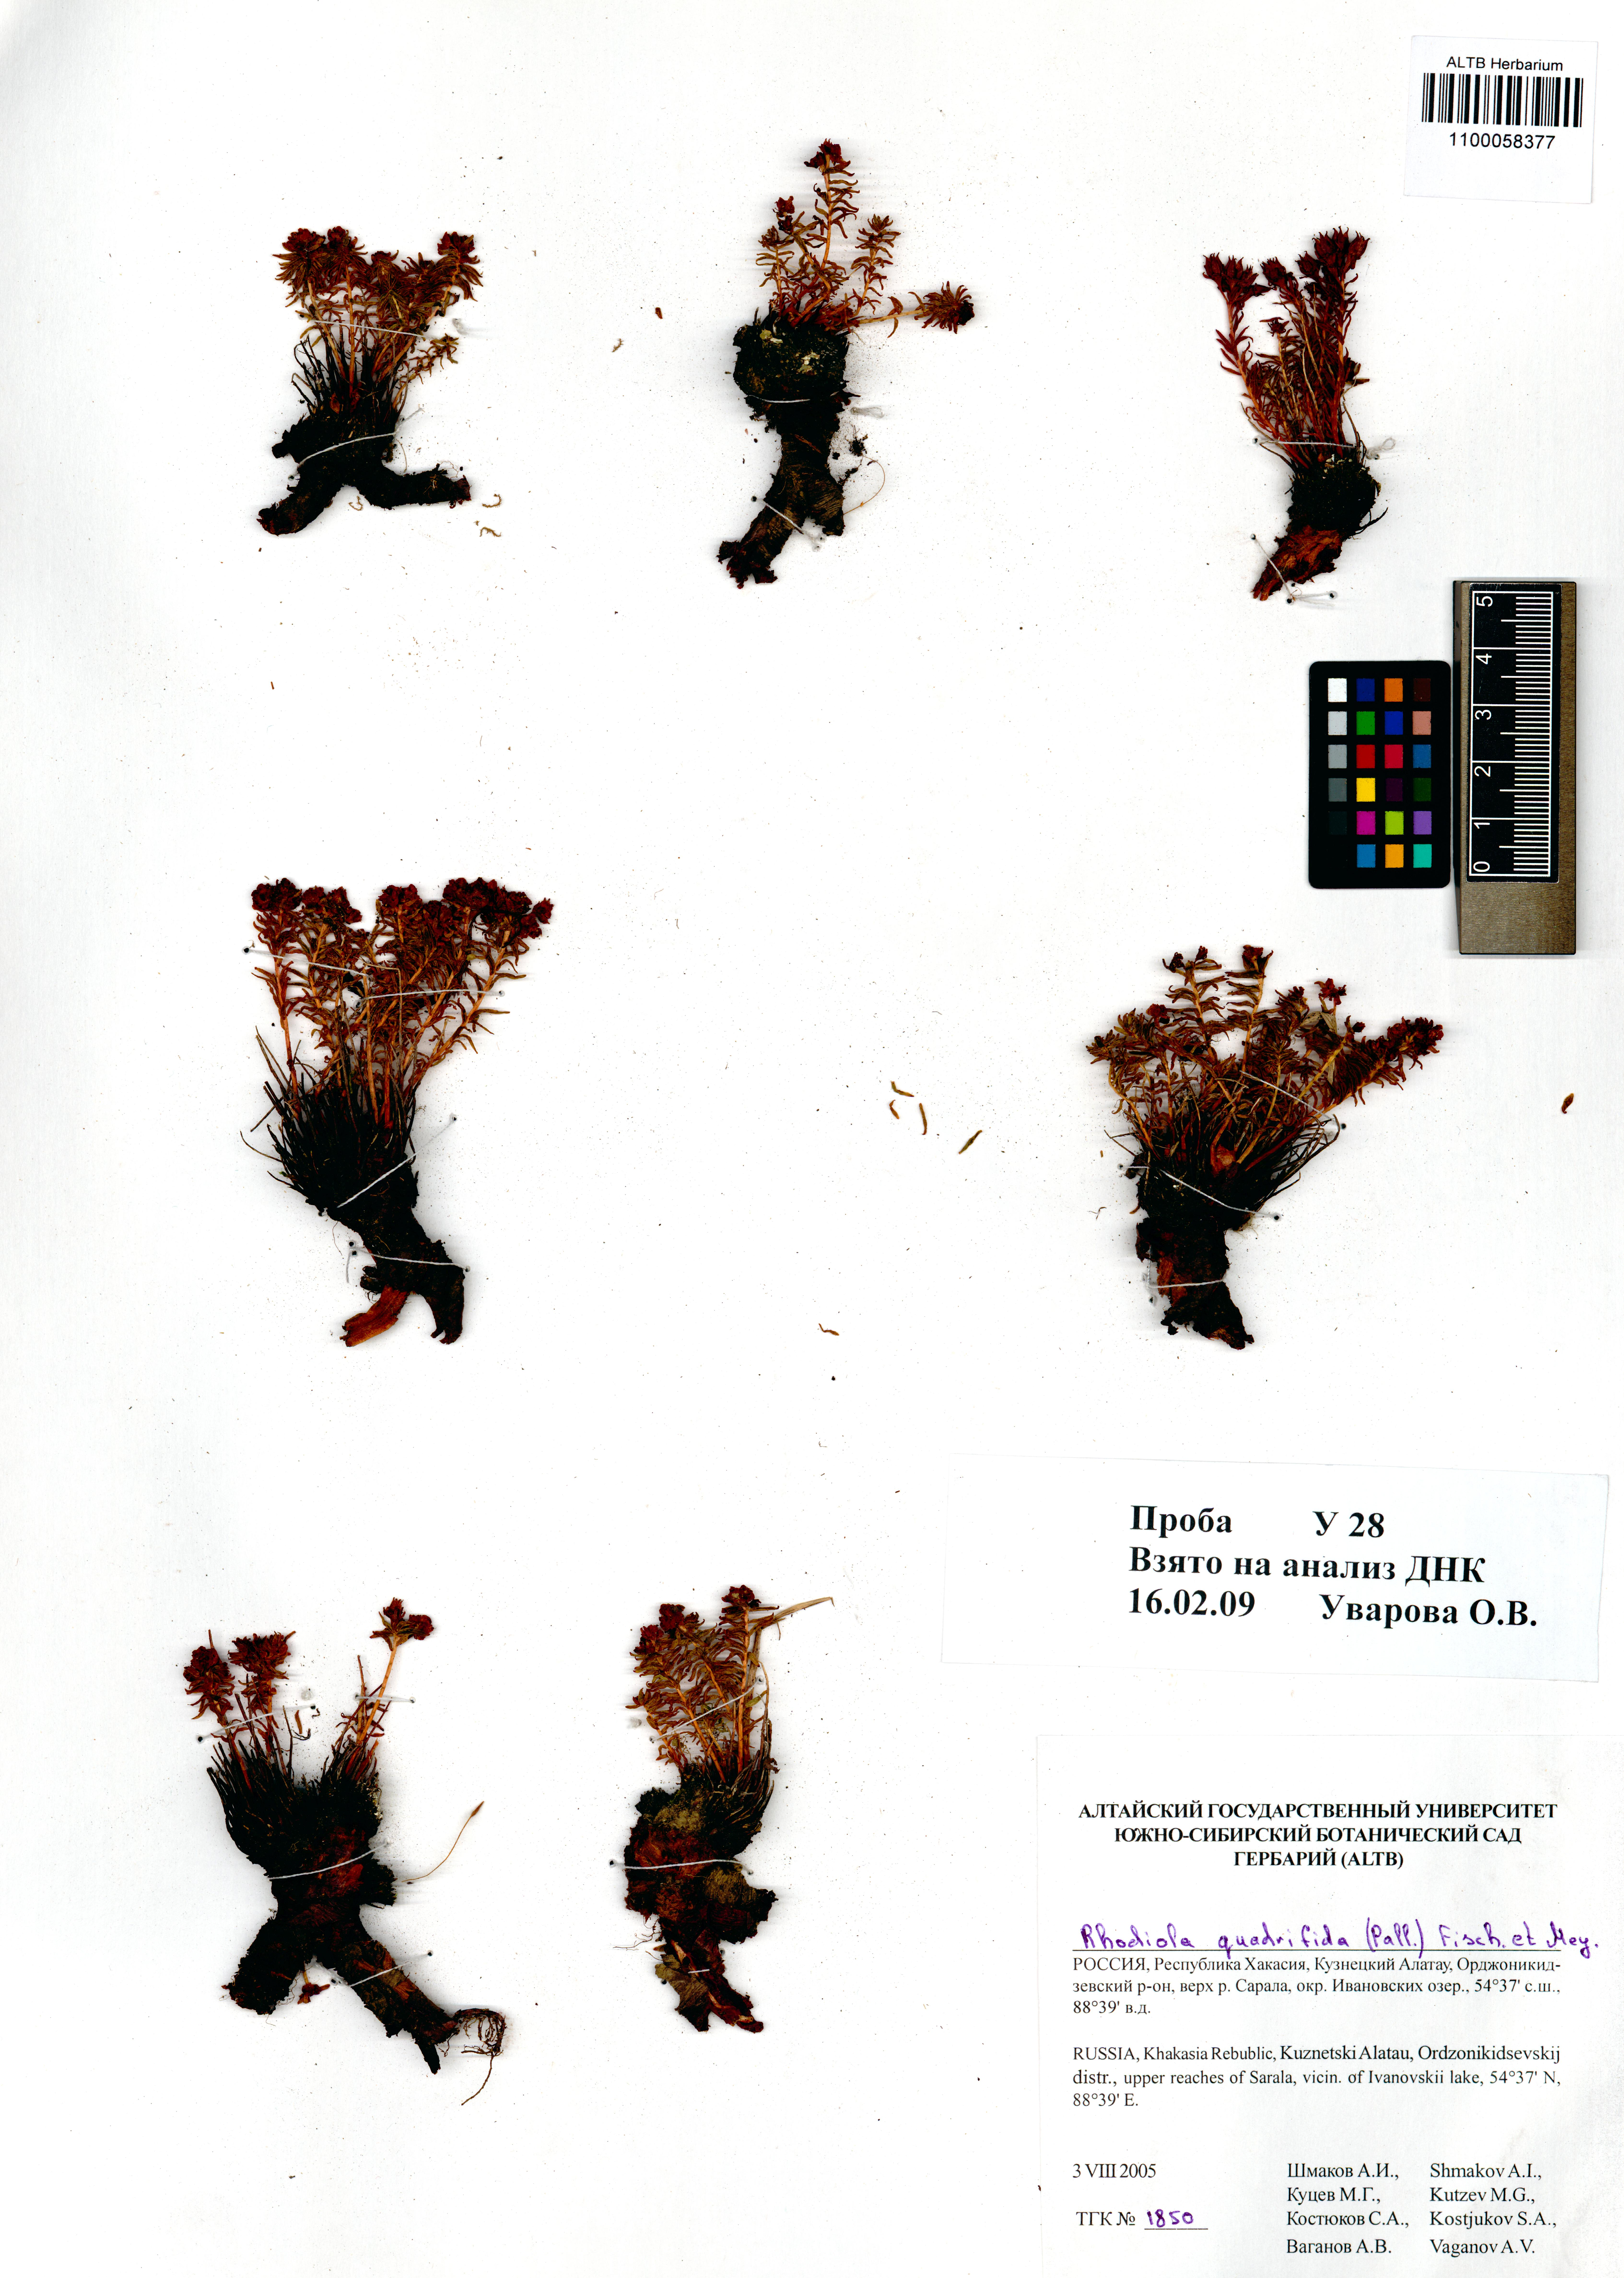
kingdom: Plantae
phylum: Tracheophyta
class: Magnoliopsida
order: Saxifragales
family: Crassulaceae
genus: Rhodiola
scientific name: Rhodiola quadrifida
